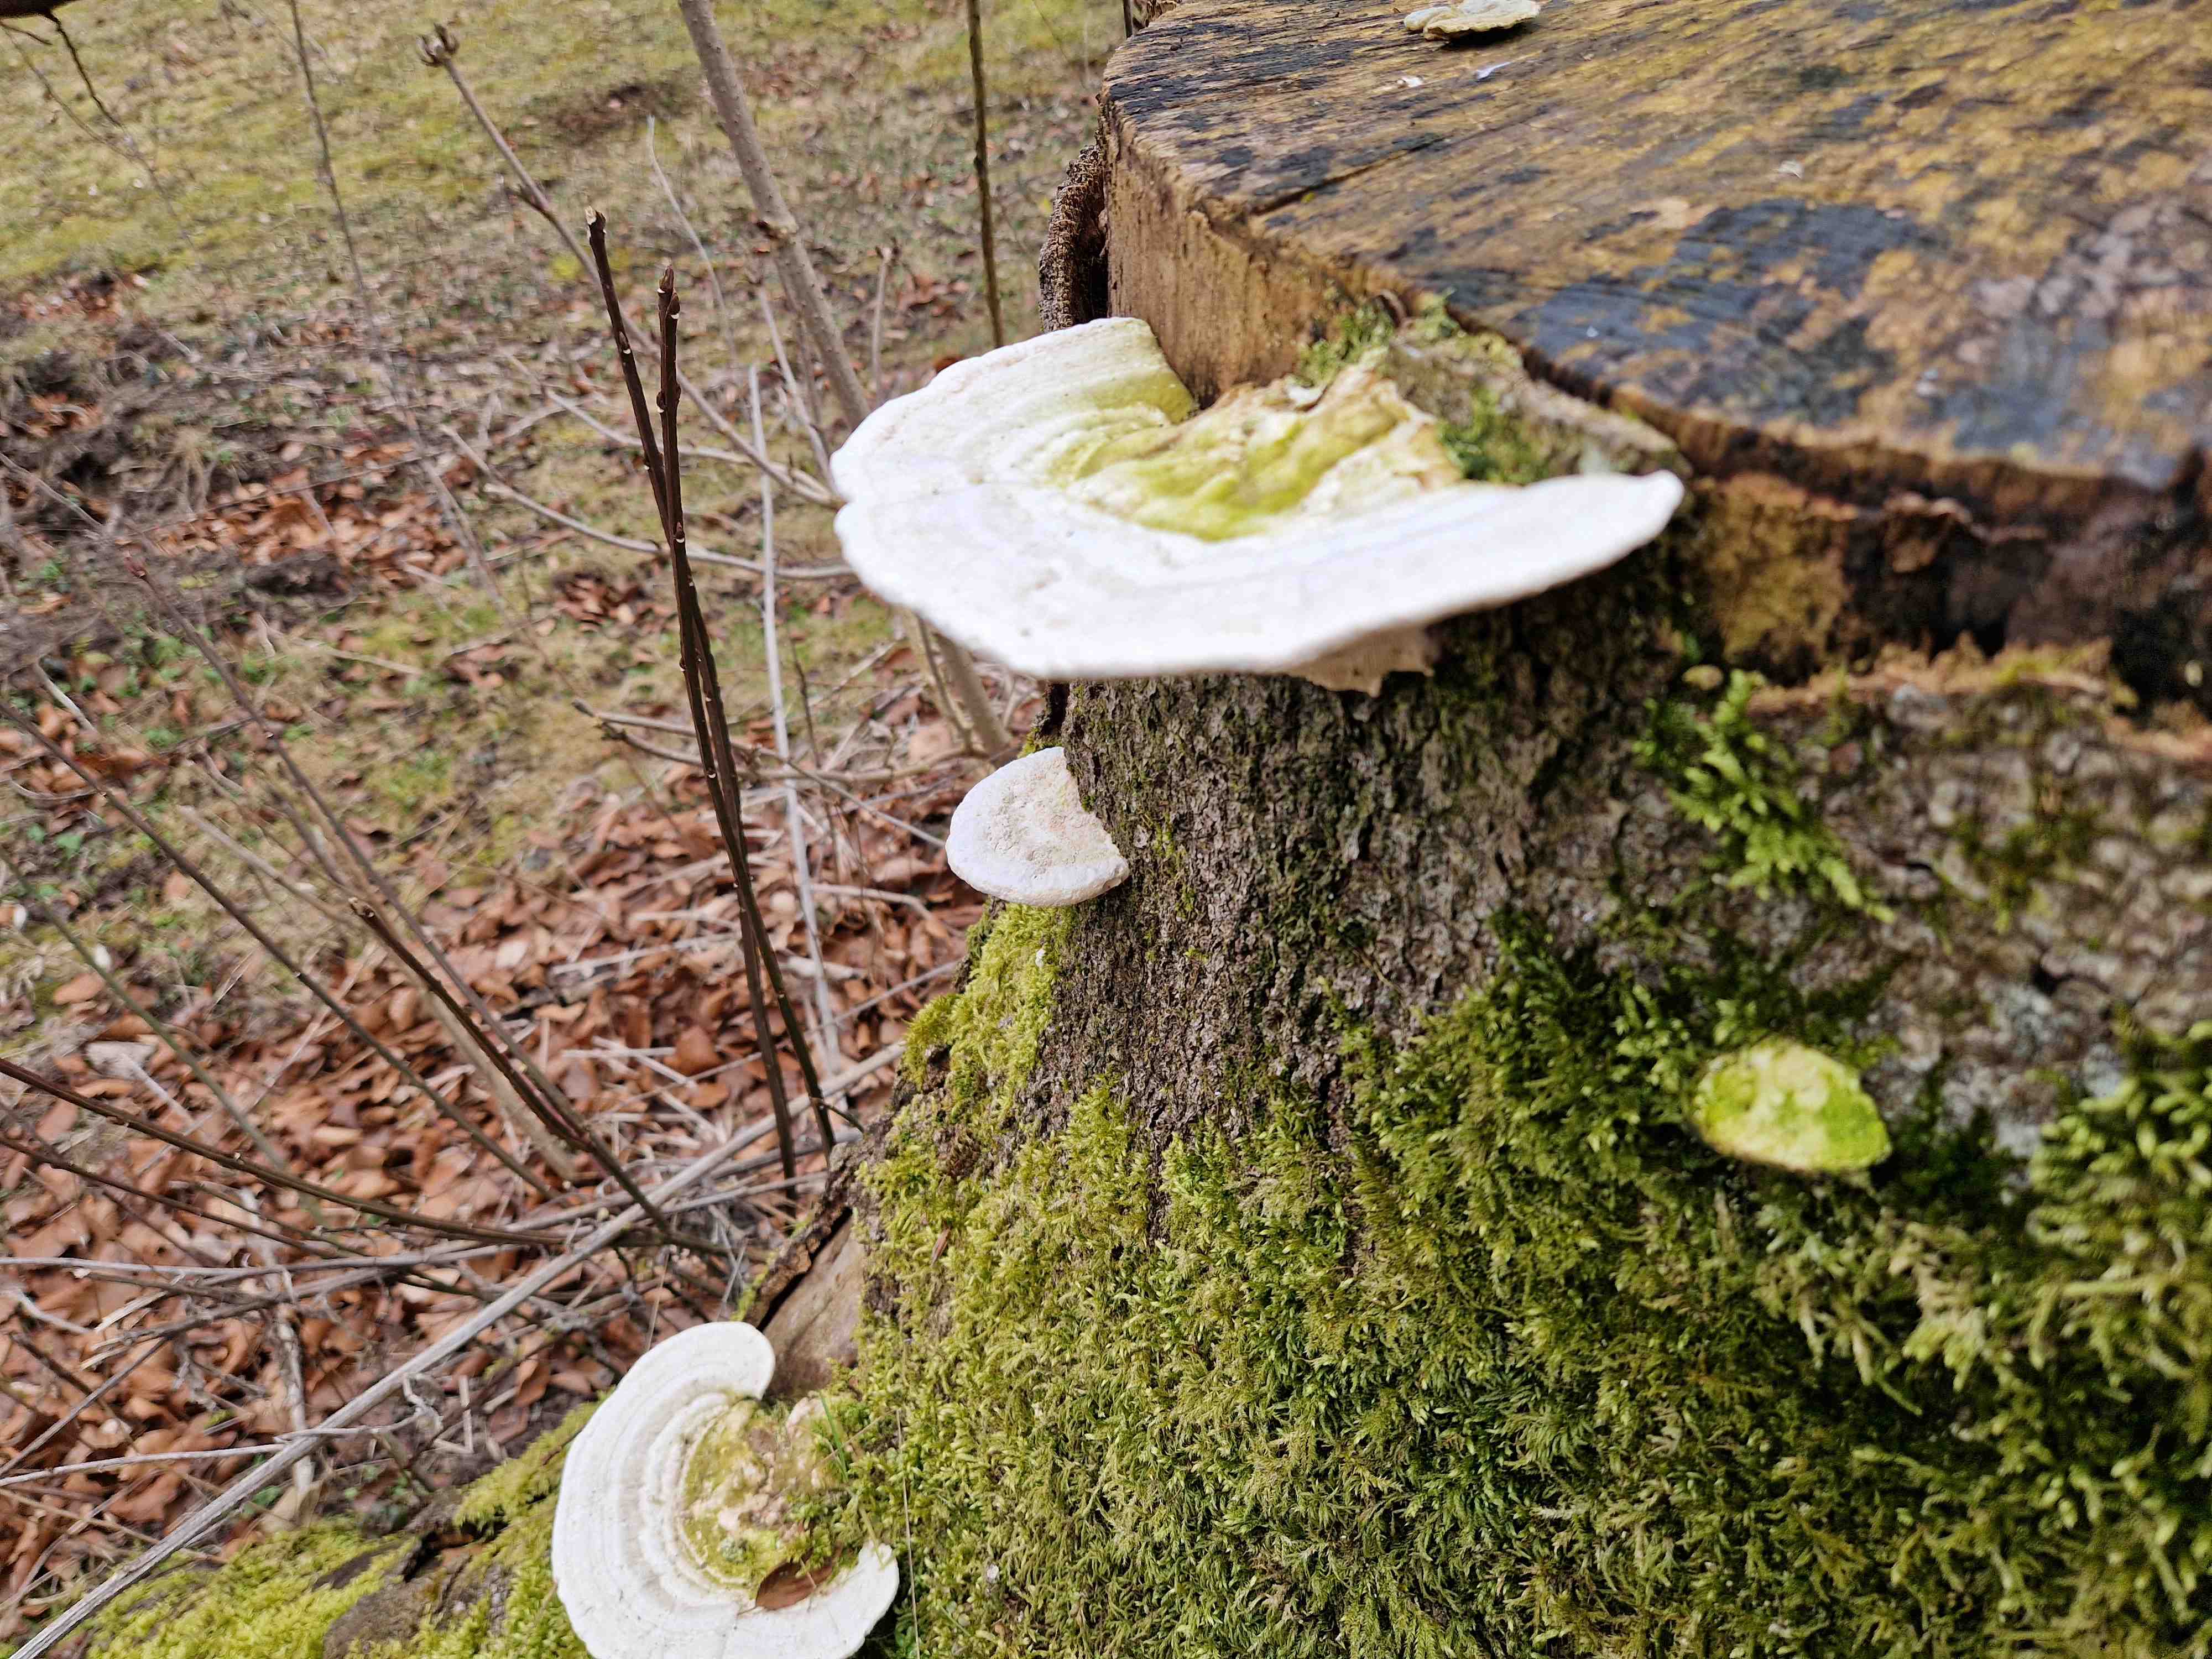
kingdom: Fungi
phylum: Basidiomycota
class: Agaricomycetes
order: Polyporales
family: Polyporaceae
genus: Trametes
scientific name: Trametes gibbosa
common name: puklet læderporesvamp
